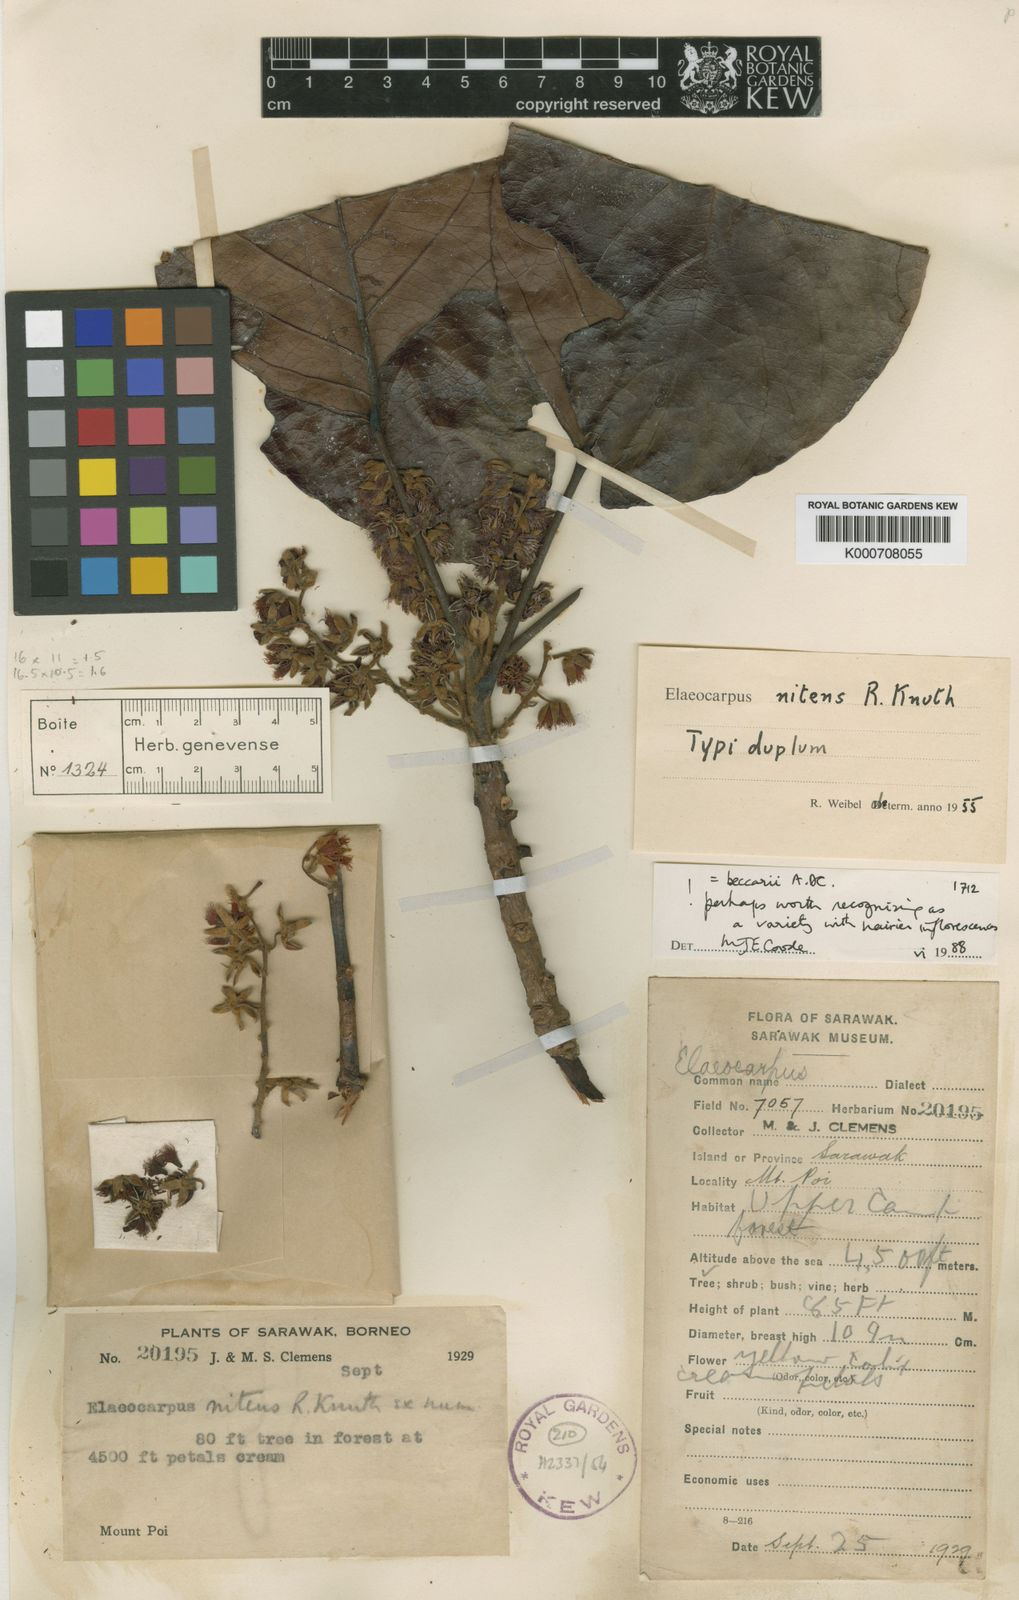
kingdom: Plantae
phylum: Tracheophyta
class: Magnoliopsida
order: Oxalidales
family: Elaeocarpaceae
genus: Elaeocarpus
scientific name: Elaeocarpus beccarii
